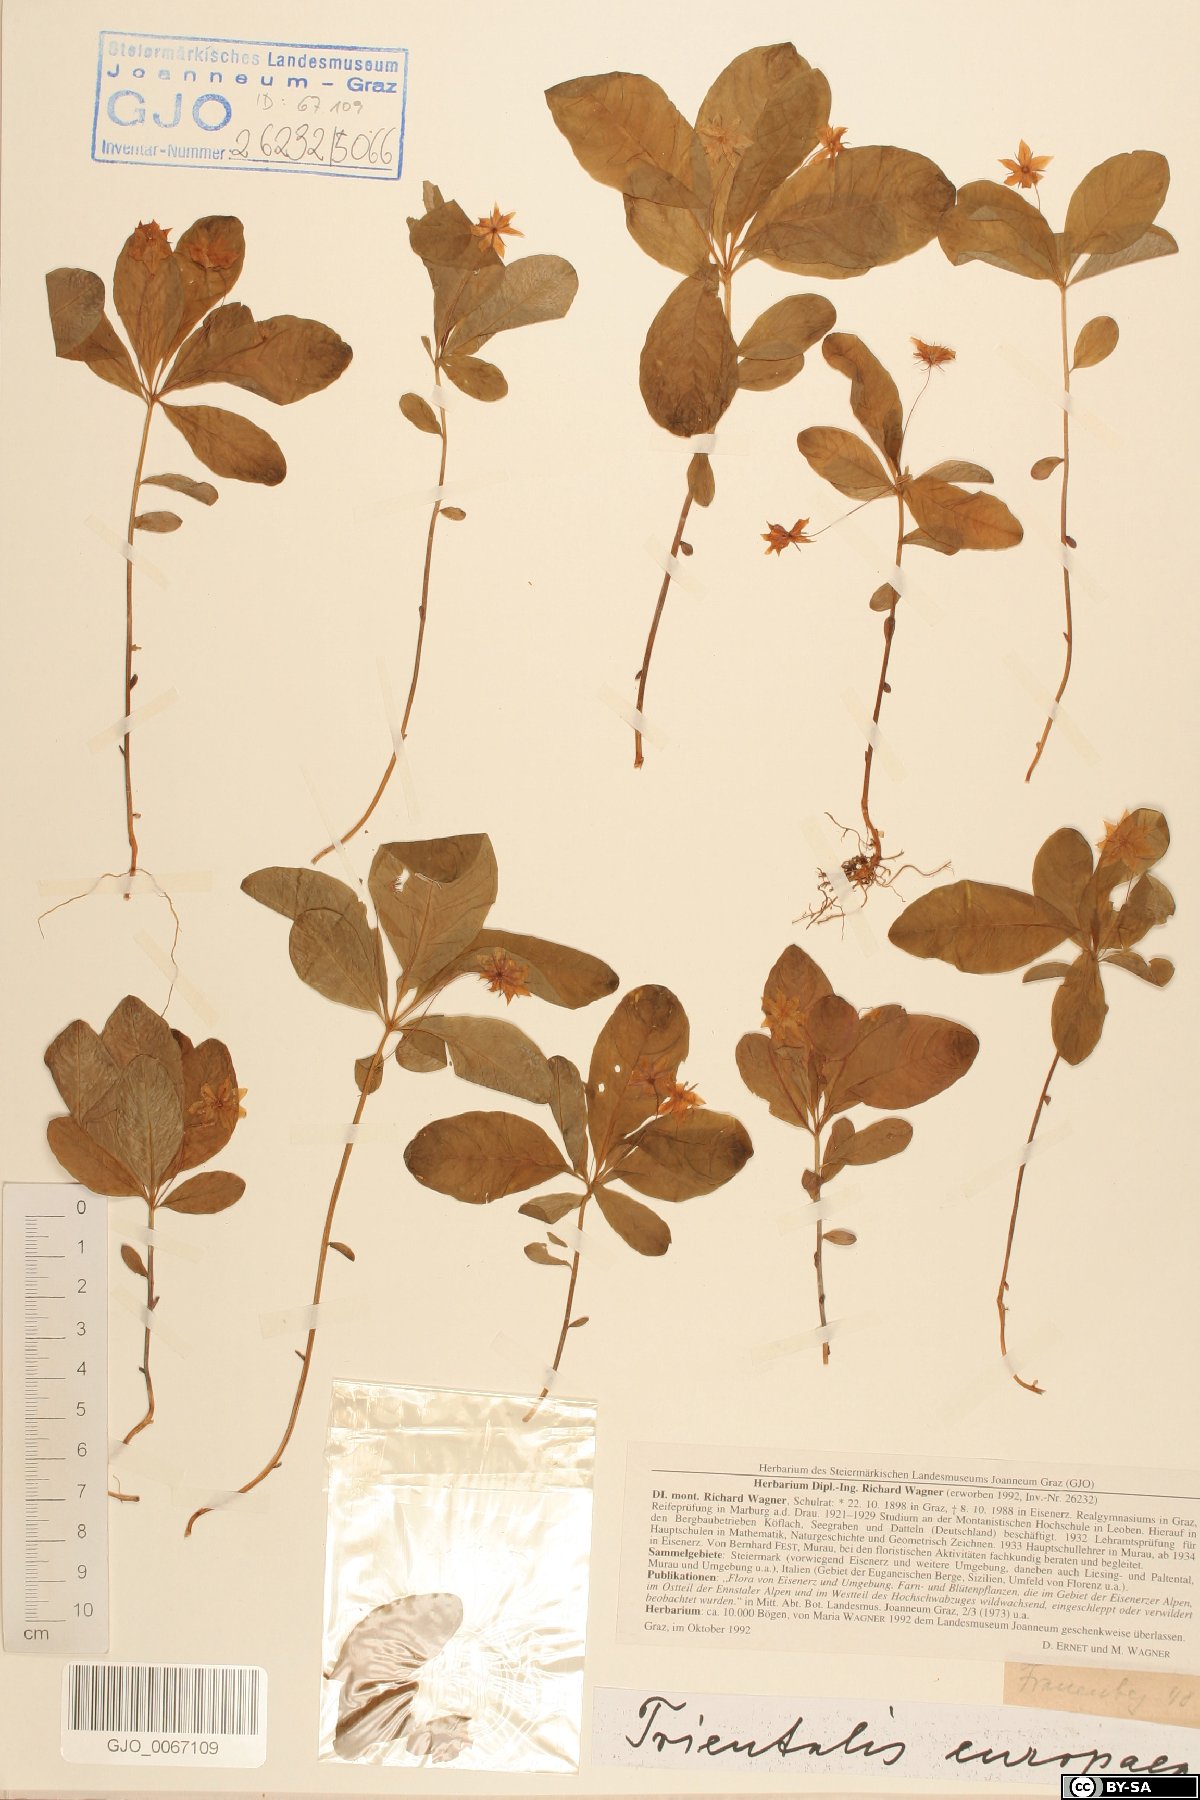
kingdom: Plantae
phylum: Tracheophyta
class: Magnoliopsida
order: Ericales
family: Primulaceae
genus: Lysimachia
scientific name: Lysimachia europaea
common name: Arctic starflower
